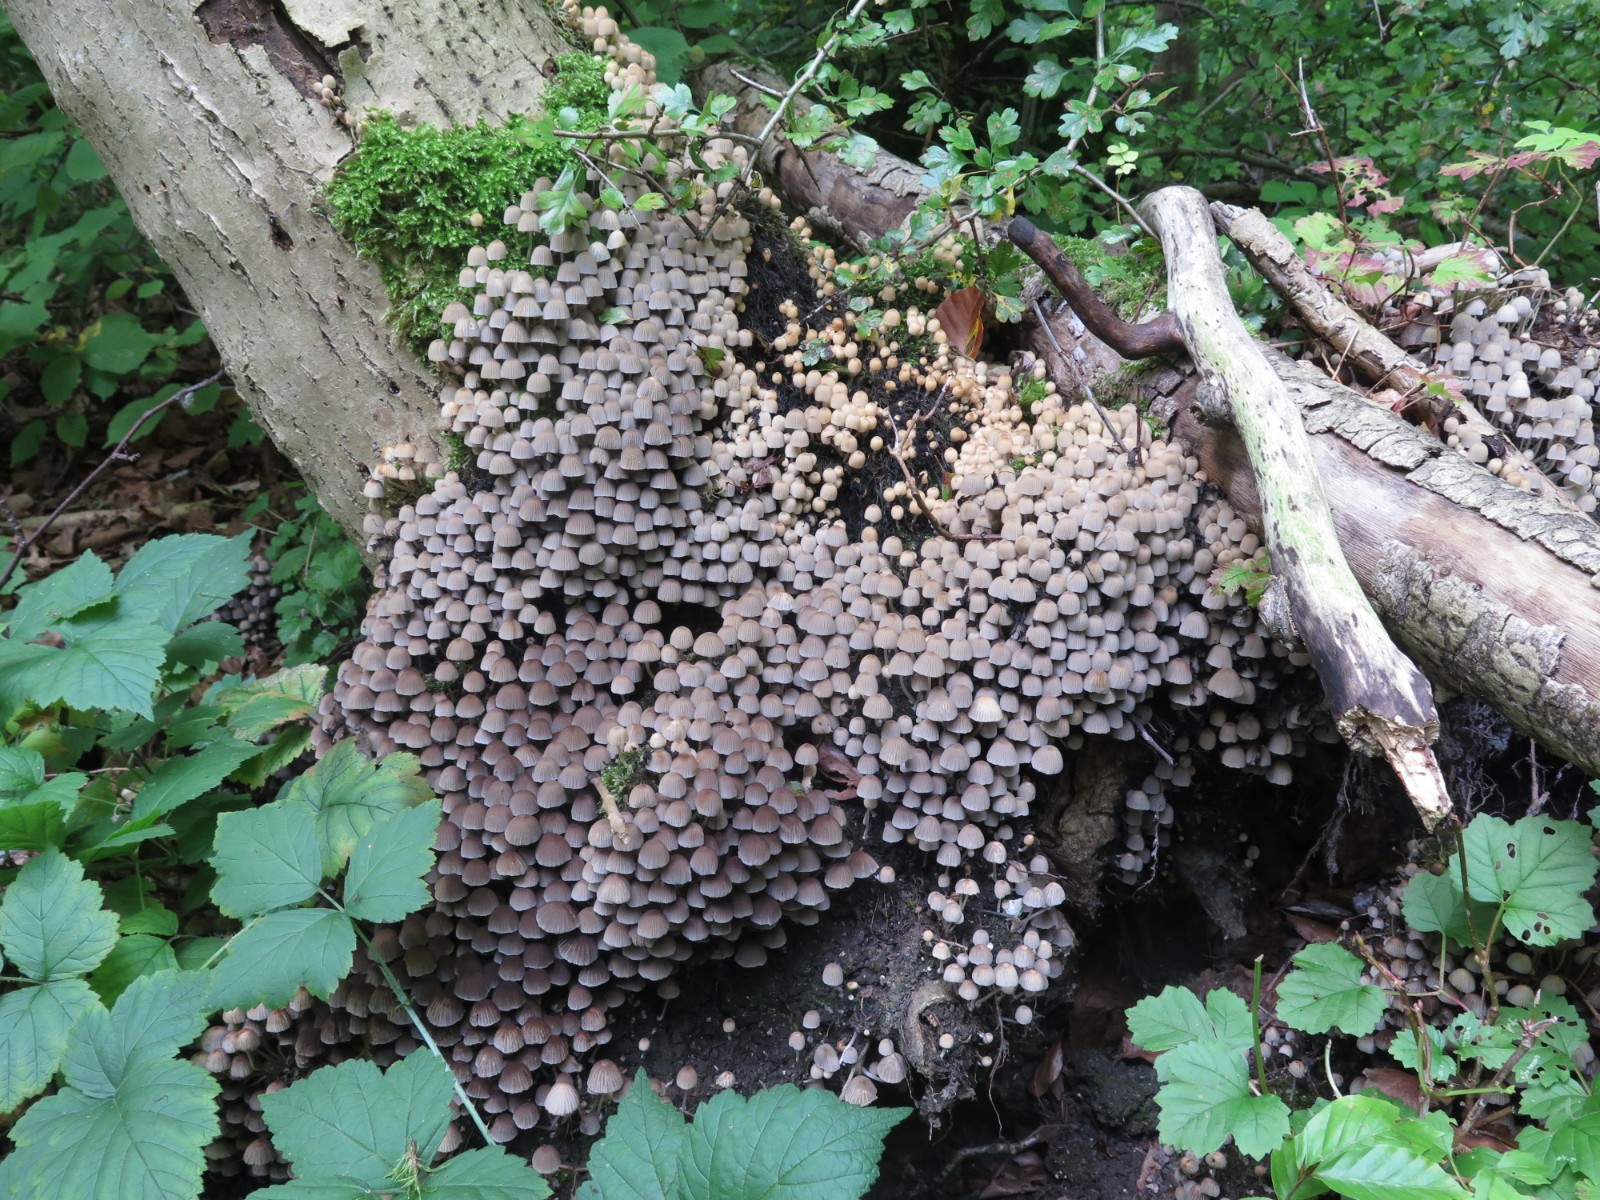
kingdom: Fungi
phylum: Basidiomycota
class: Agaricomycetes
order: Agaricales
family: Psathyrellaceae
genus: Coprinellus
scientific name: Coprinellus disseminatus
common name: bredsået blækhat
